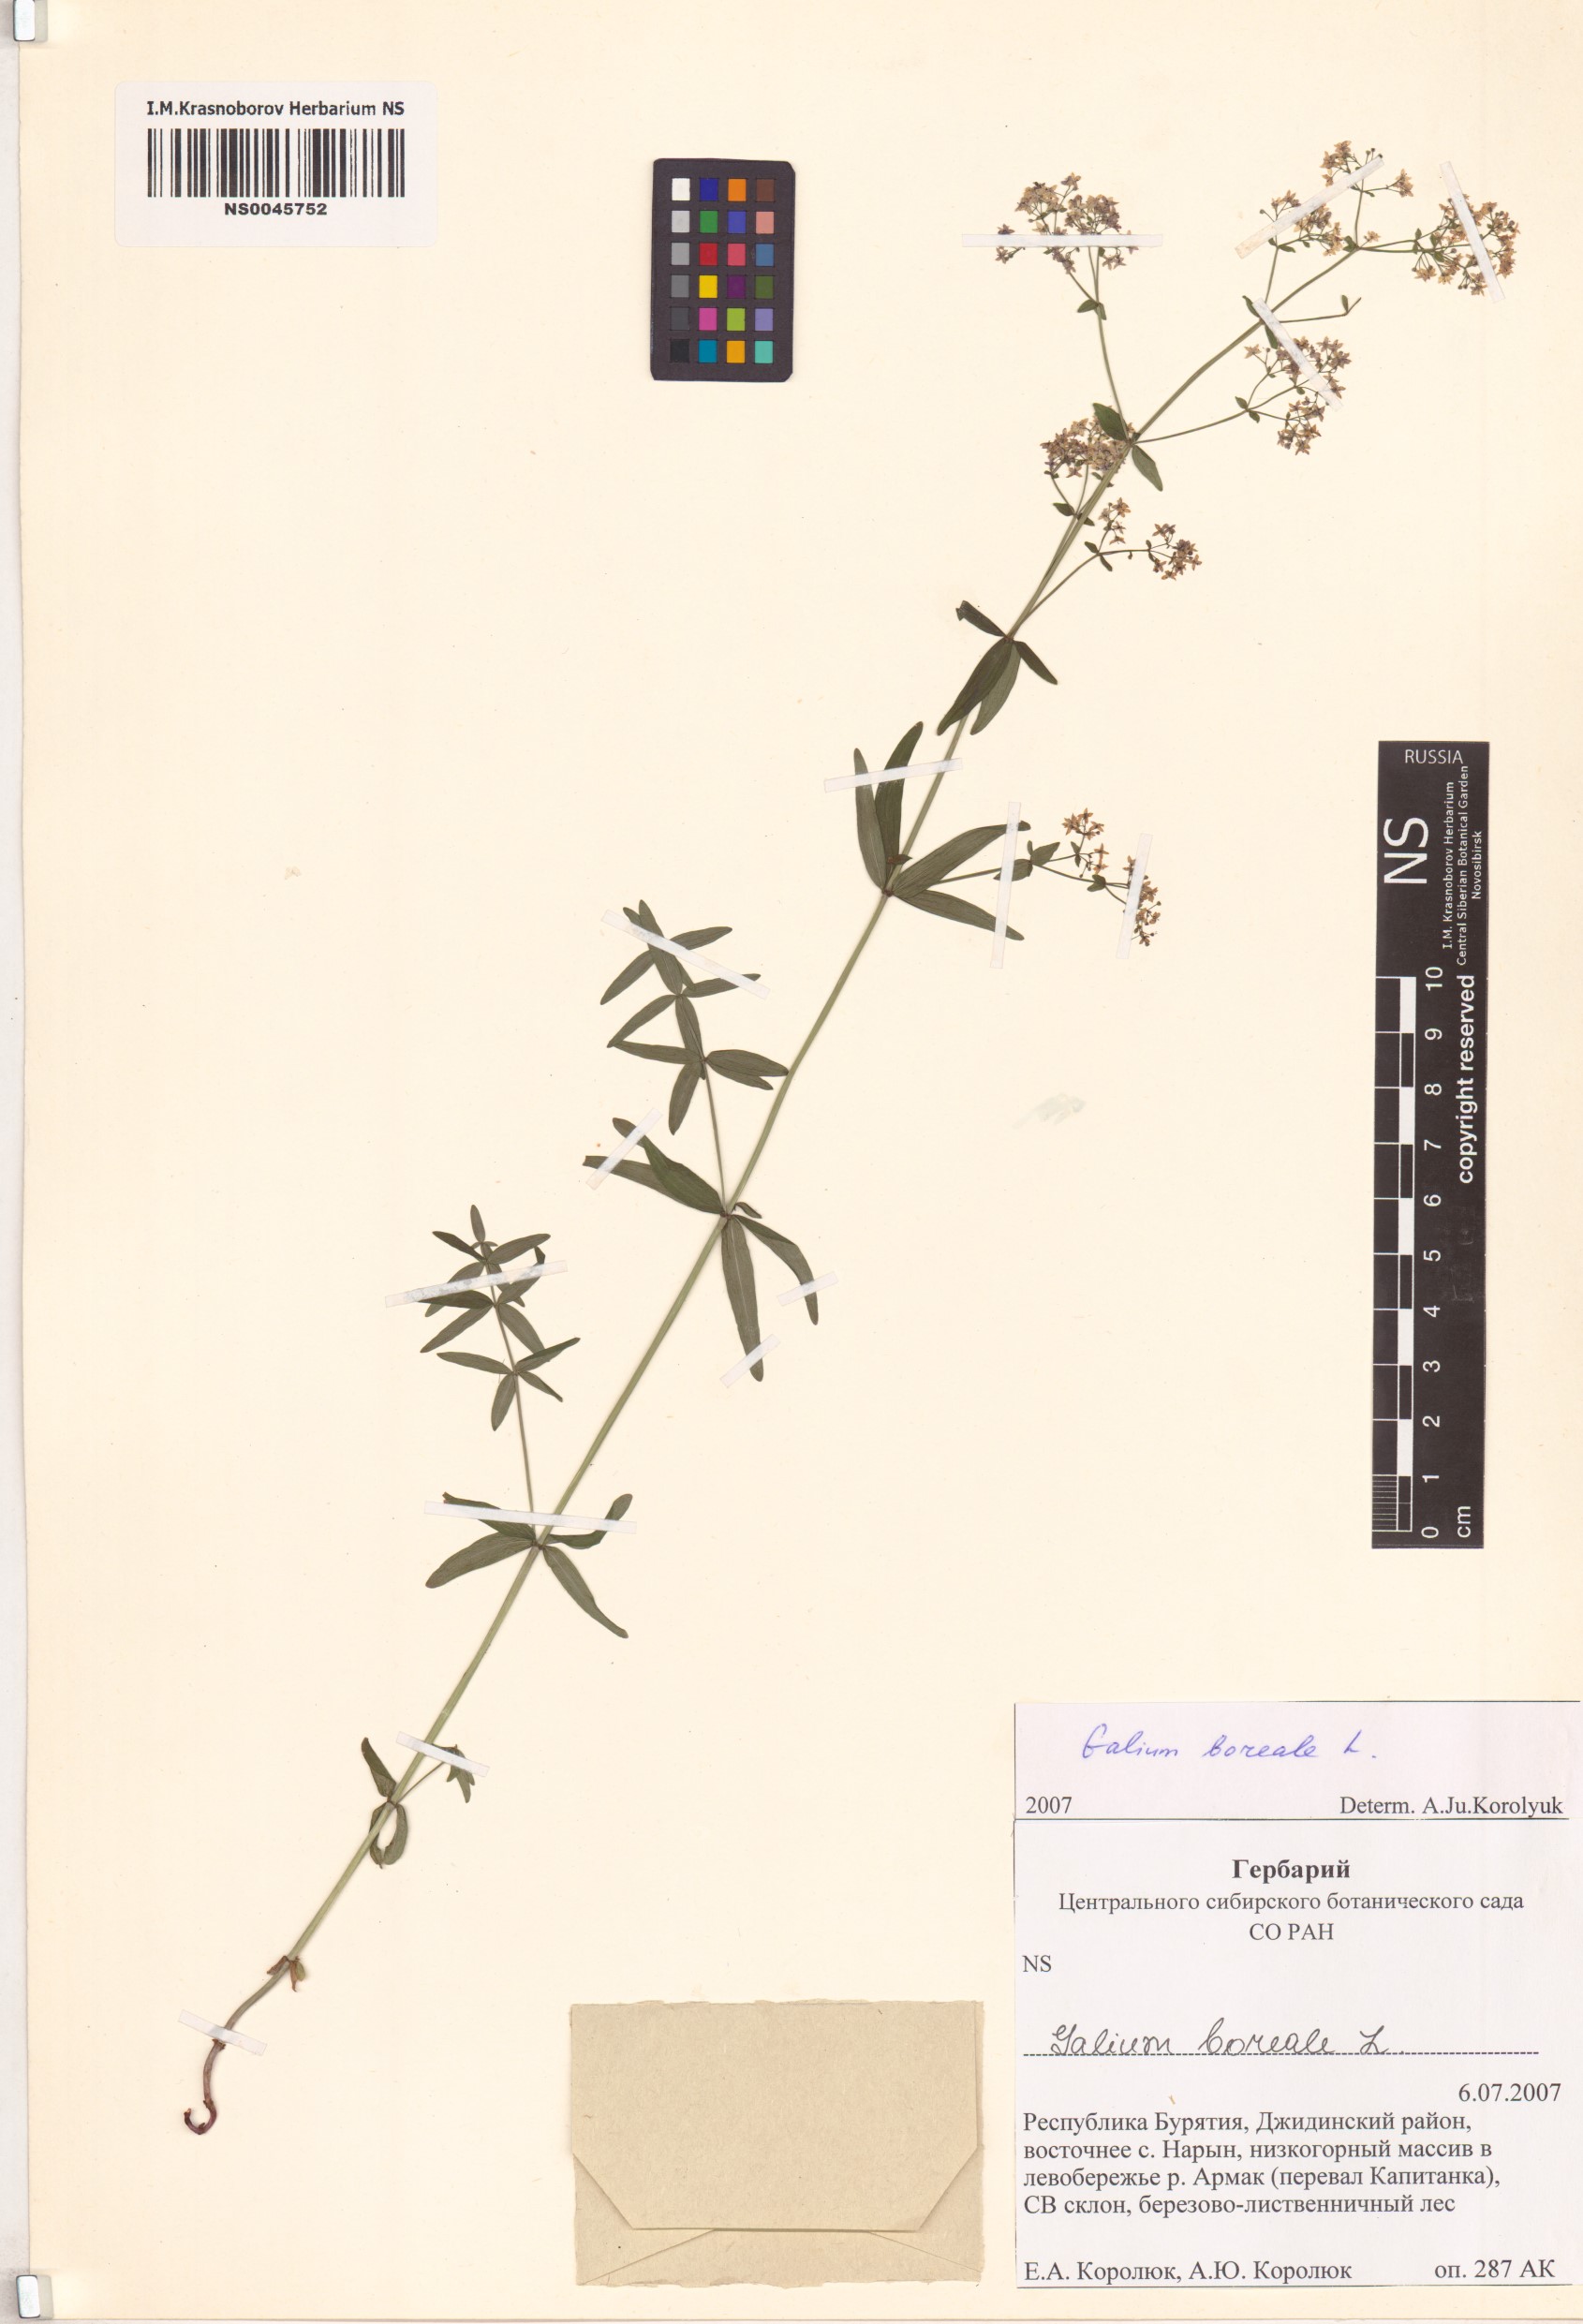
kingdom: Plantae
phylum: Tracheophyta
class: Magnoliopsida
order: Gentianales
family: Rubiaceae
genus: Galium
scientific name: Galium boreale
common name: Northern bedstraw
